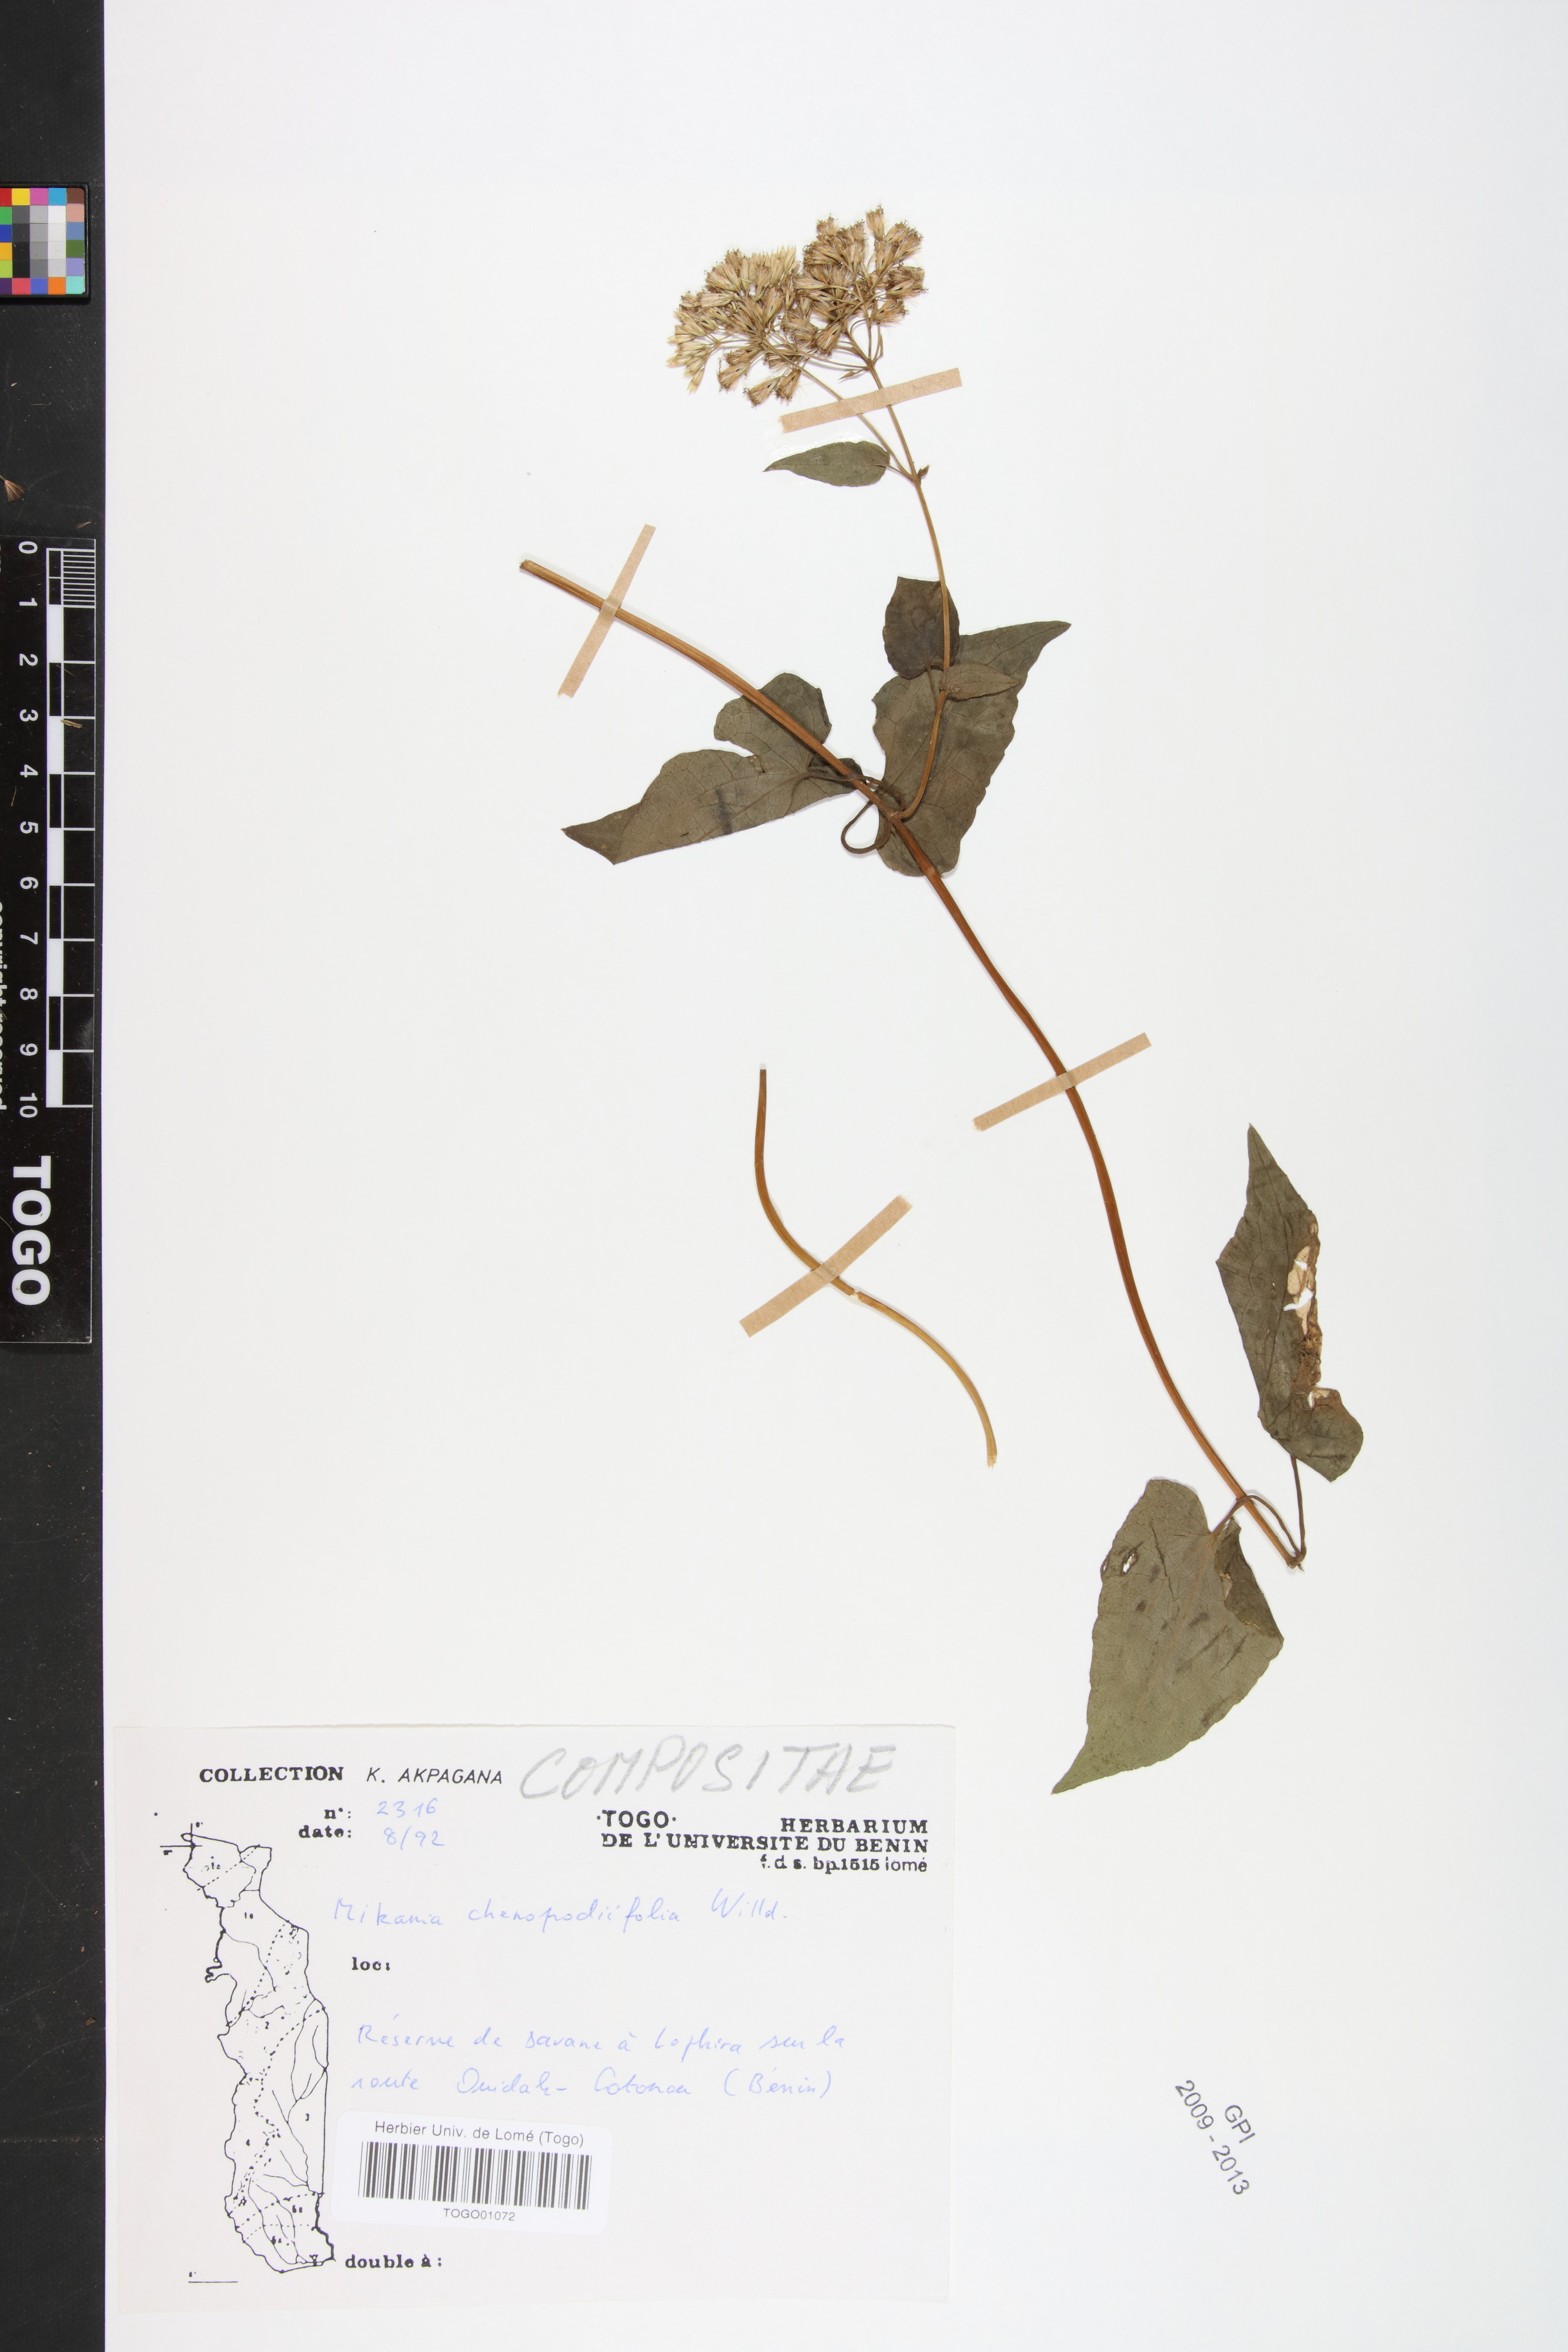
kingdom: Plantae
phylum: Tracheophyta
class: Magnoliopsida
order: Asterales
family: Asteraceae
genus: Mikania
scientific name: Mikania chenopodifolia
